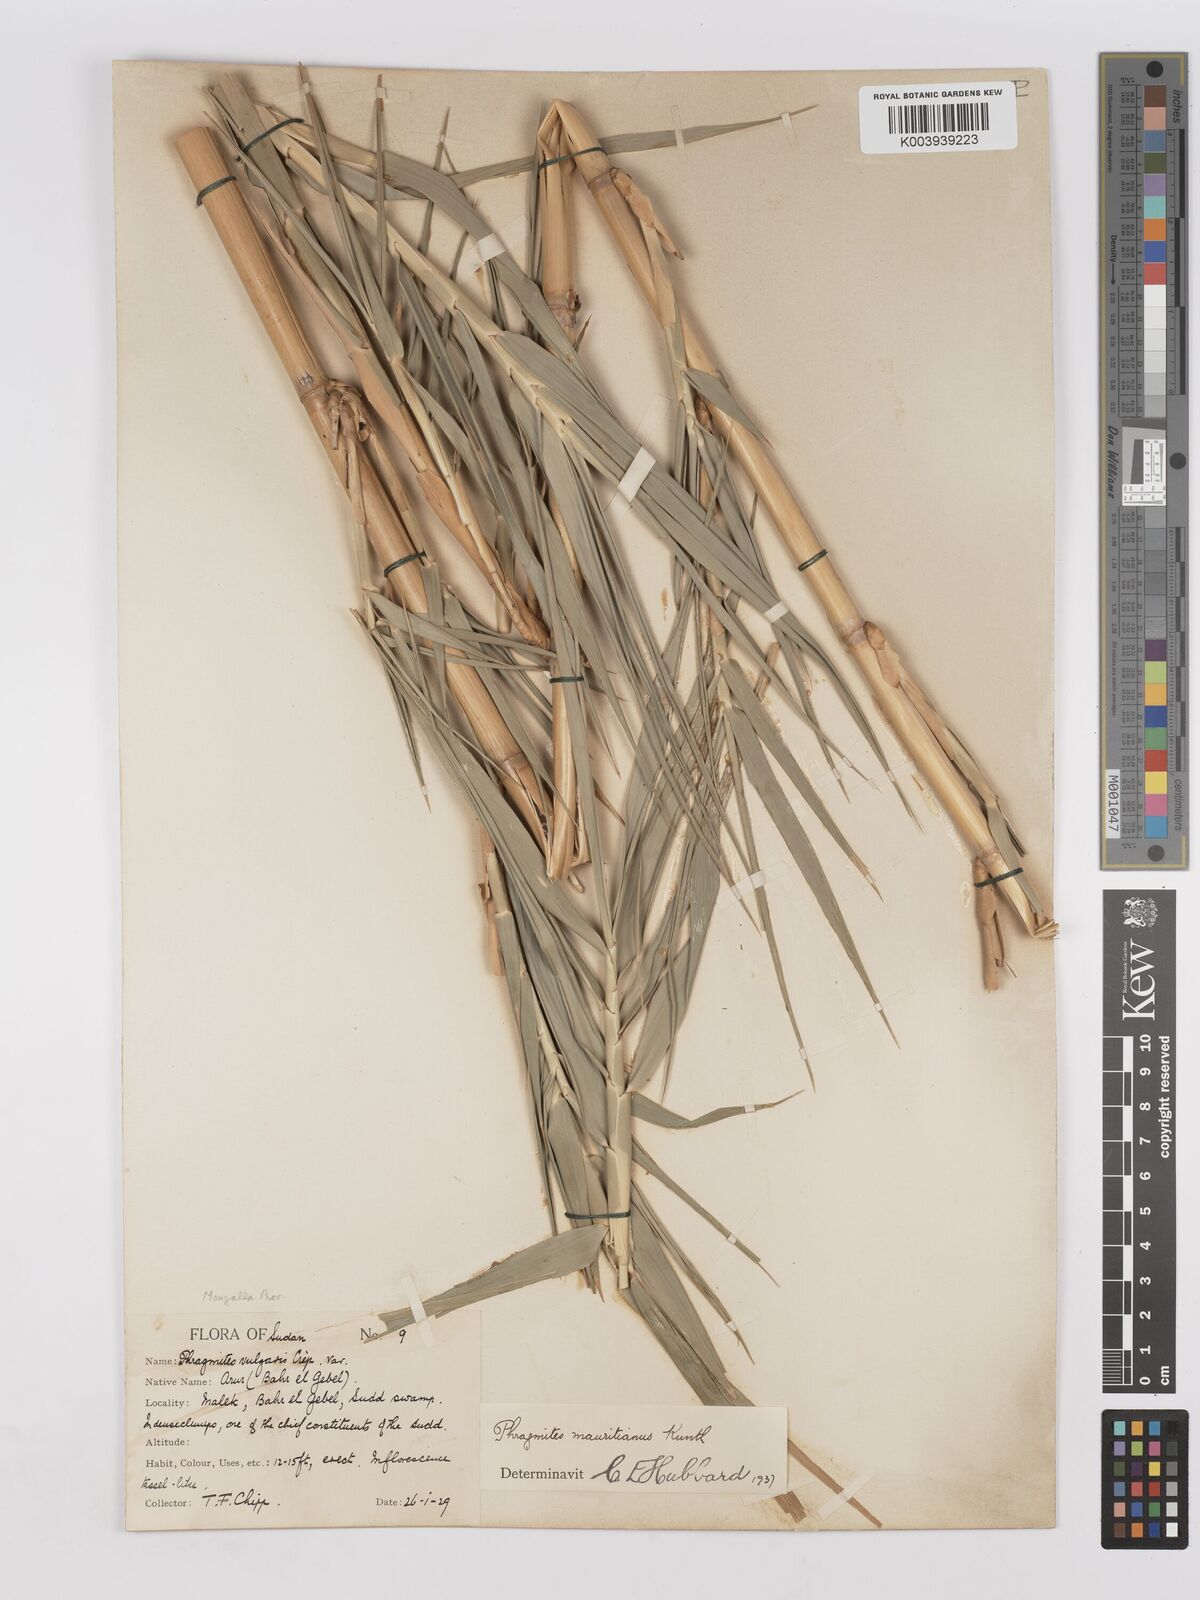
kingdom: Plantae
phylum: Tracheophyta
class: Liliopsida
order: Poales
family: Poaceae
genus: Phragmites
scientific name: Phragmites mauritianus
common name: Reed grass
